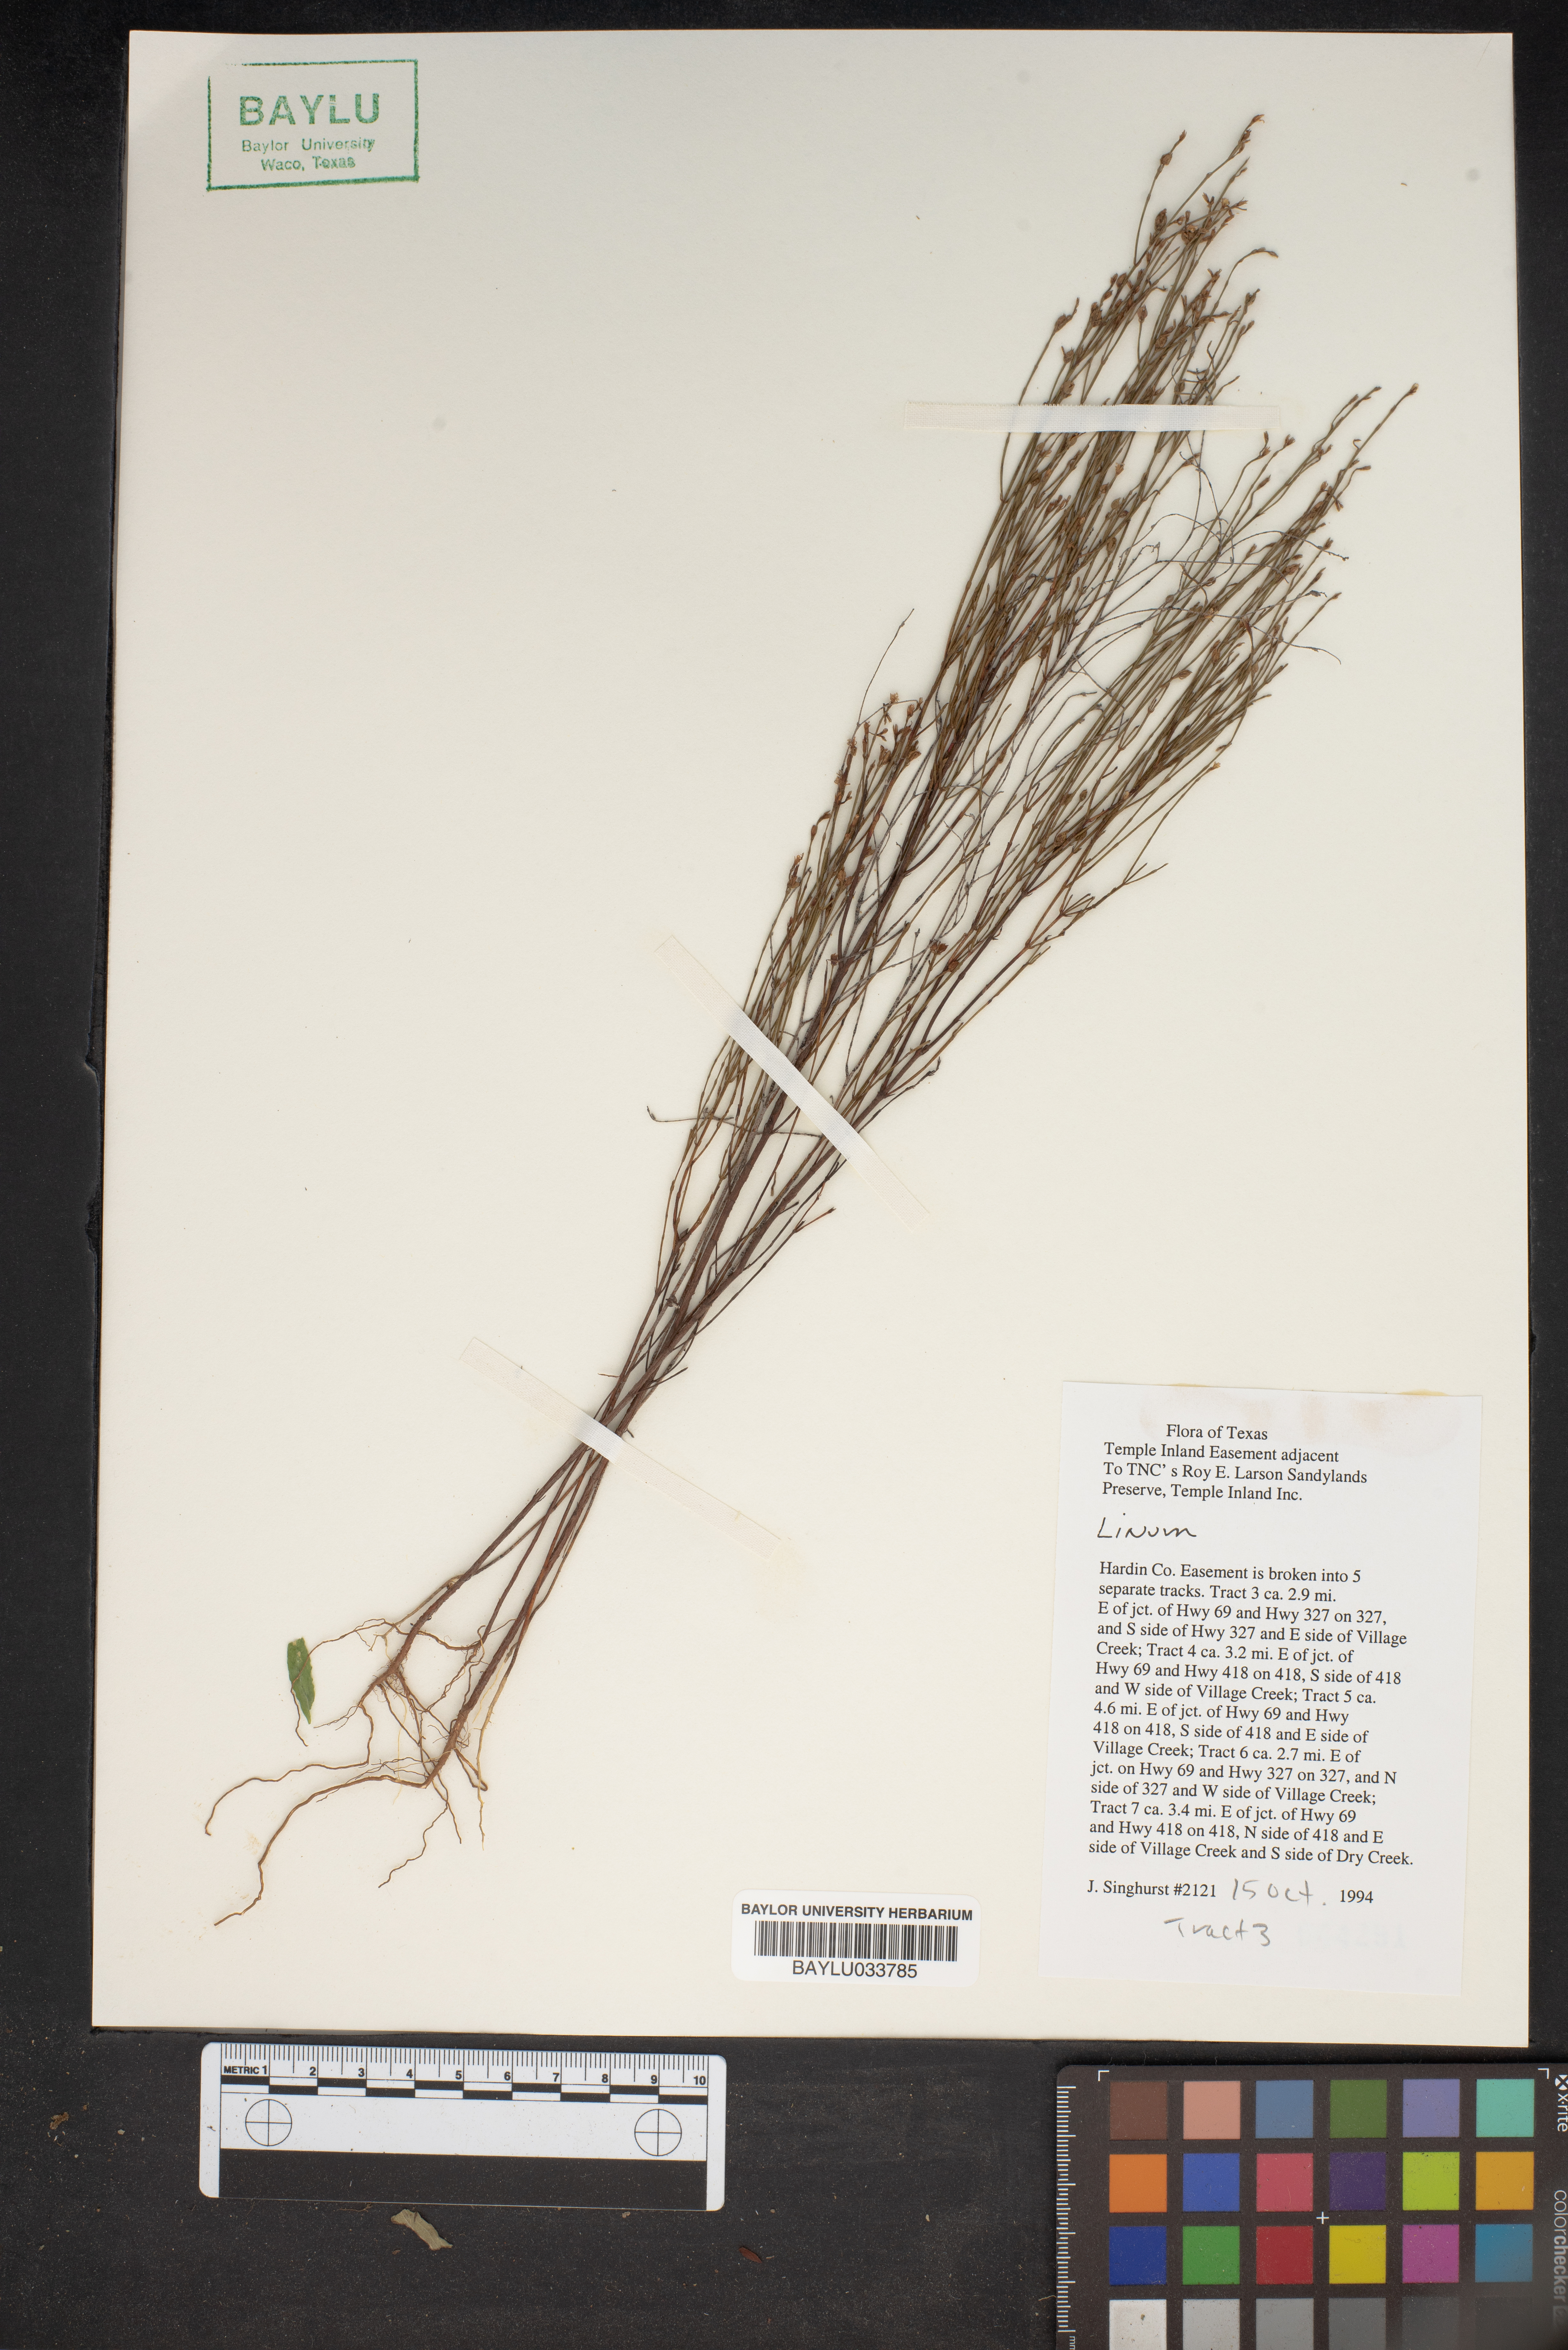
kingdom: Plantae
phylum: Tracheophyta
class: Magnoliopsida
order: Malpighiales
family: Linaceae
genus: Linum
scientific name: Linum
